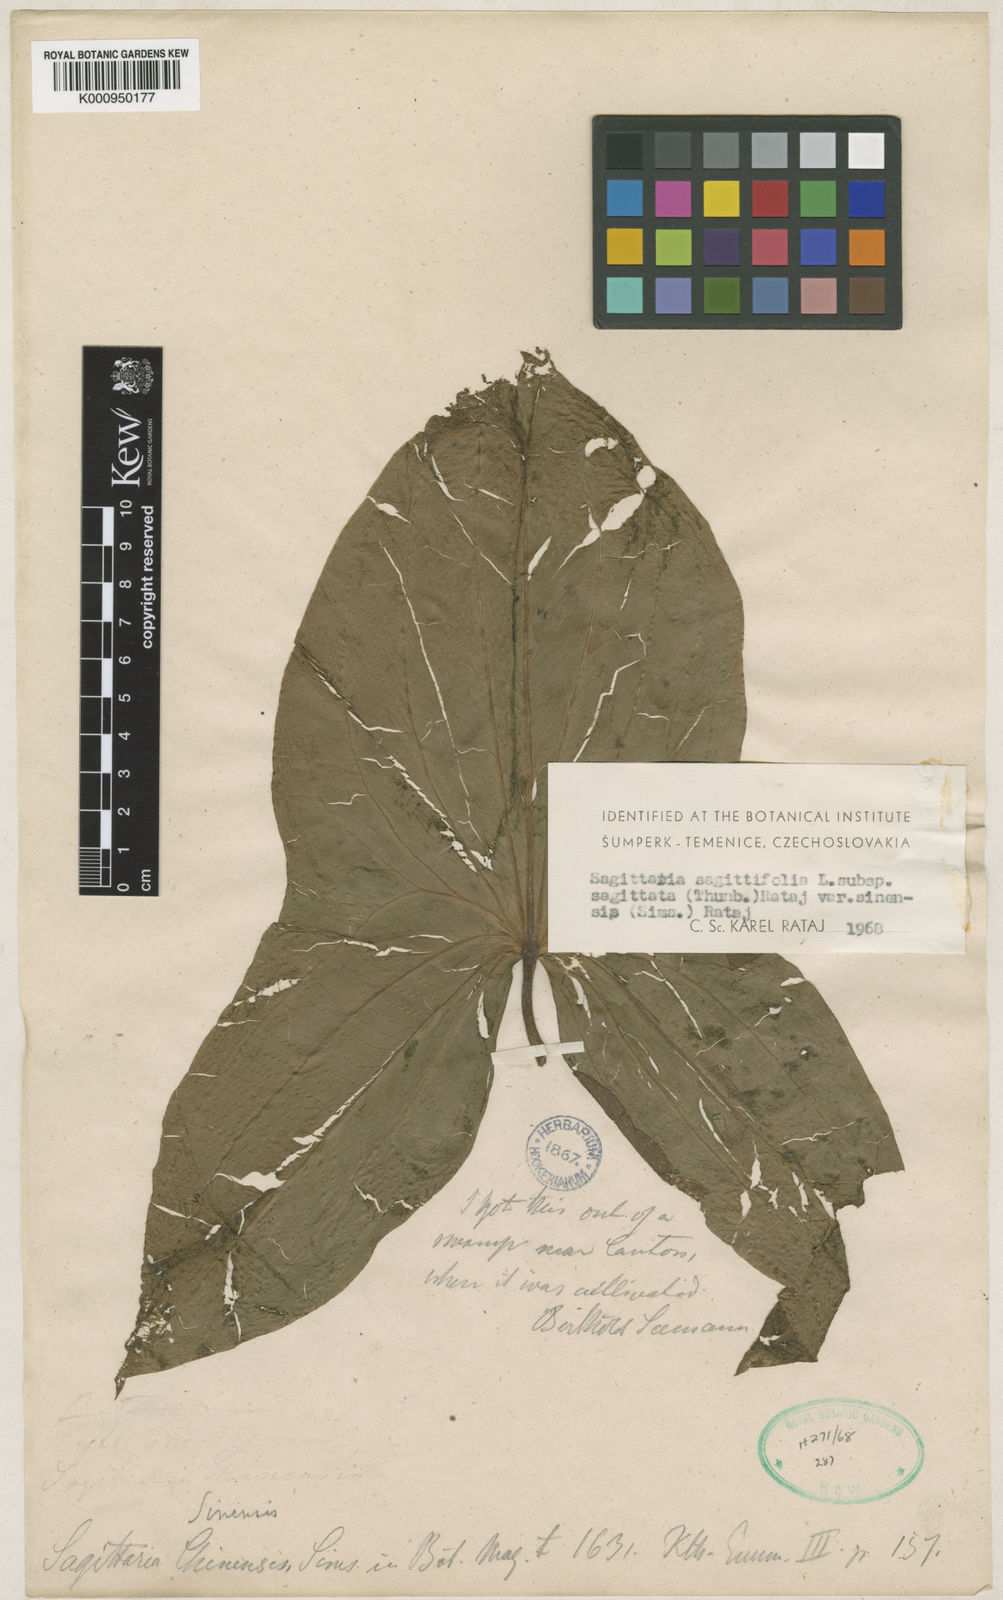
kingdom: Plantae
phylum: Tracheophyta
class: Liliopsida
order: Alismatales
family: Alismataceae
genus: Sagittaria
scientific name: Sagittaria sagittifolia
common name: Arrowhead
